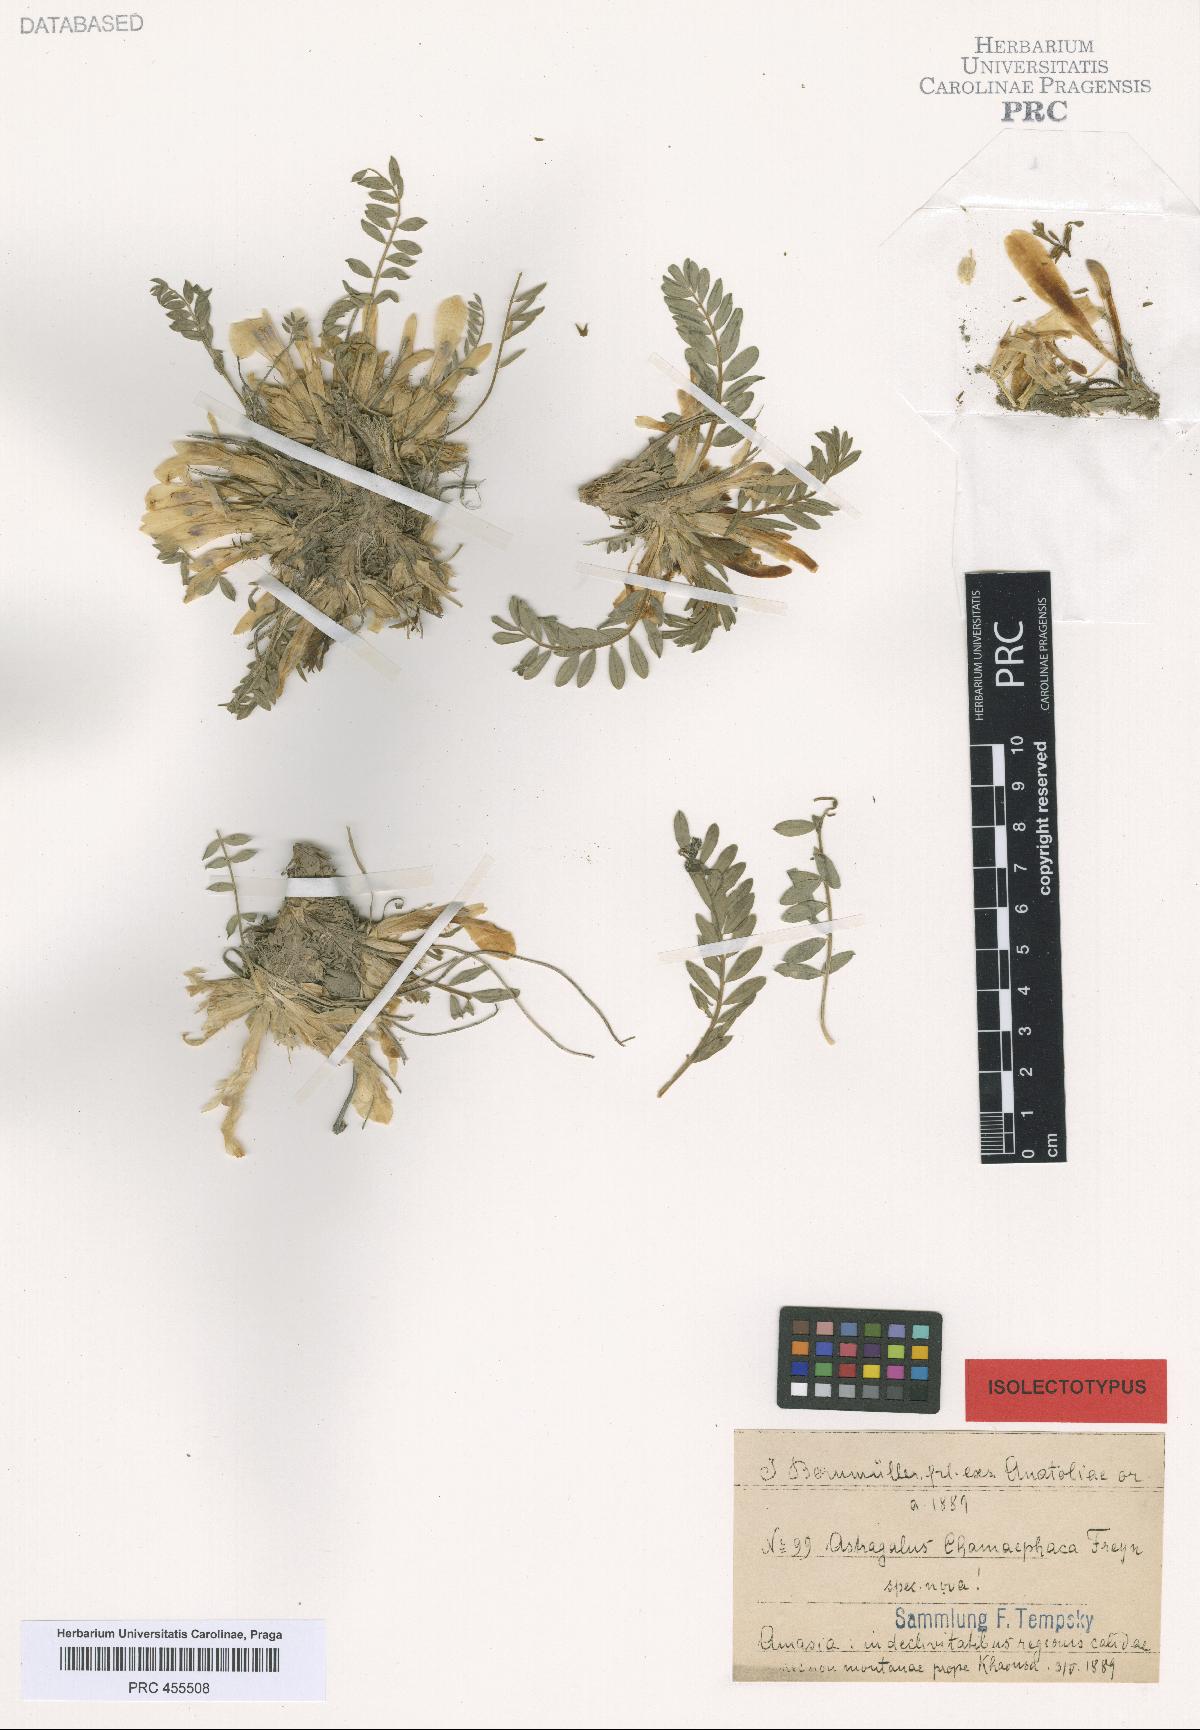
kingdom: Plantae
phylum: Tracheophyta
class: Magnoliopsida
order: Fabales
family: Fabaceae
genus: Astragalus
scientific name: Astragalus chamaephaca
